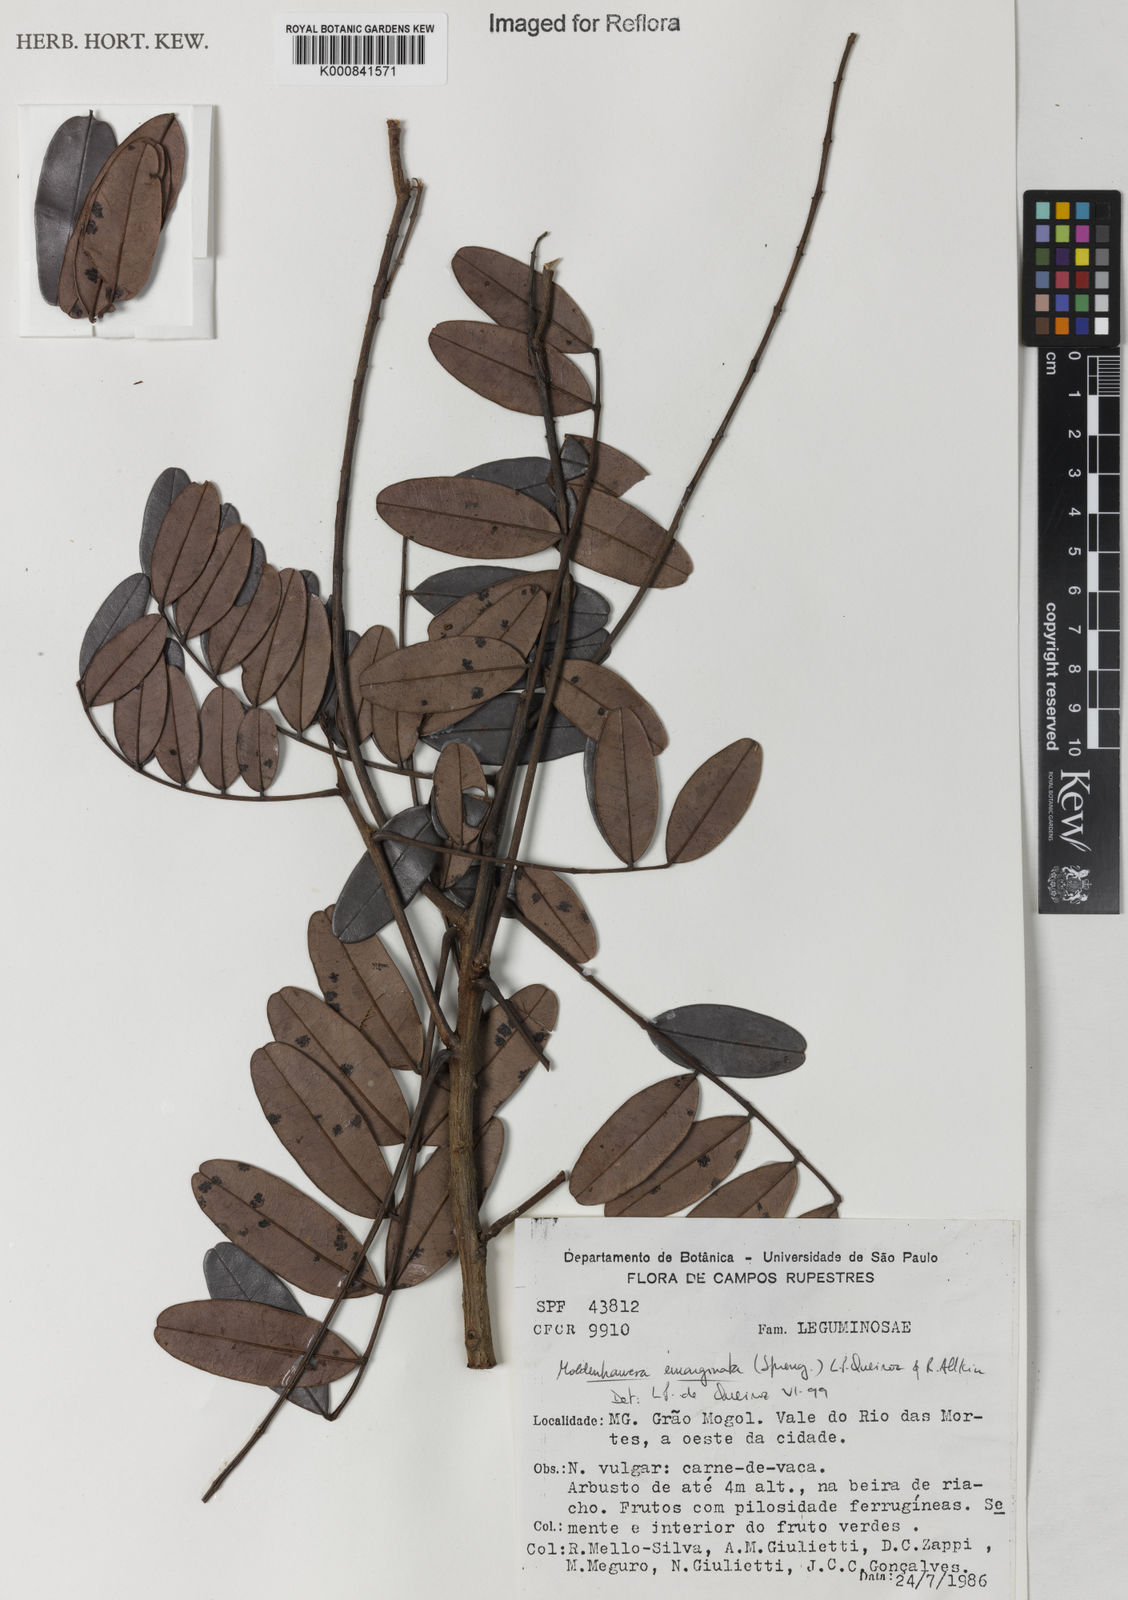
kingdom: Plantae
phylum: Tracheophyta
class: Magnoliopsida
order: Fabales
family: Fabaceae
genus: Moldenhawera
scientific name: Moldenhawera emarginata
